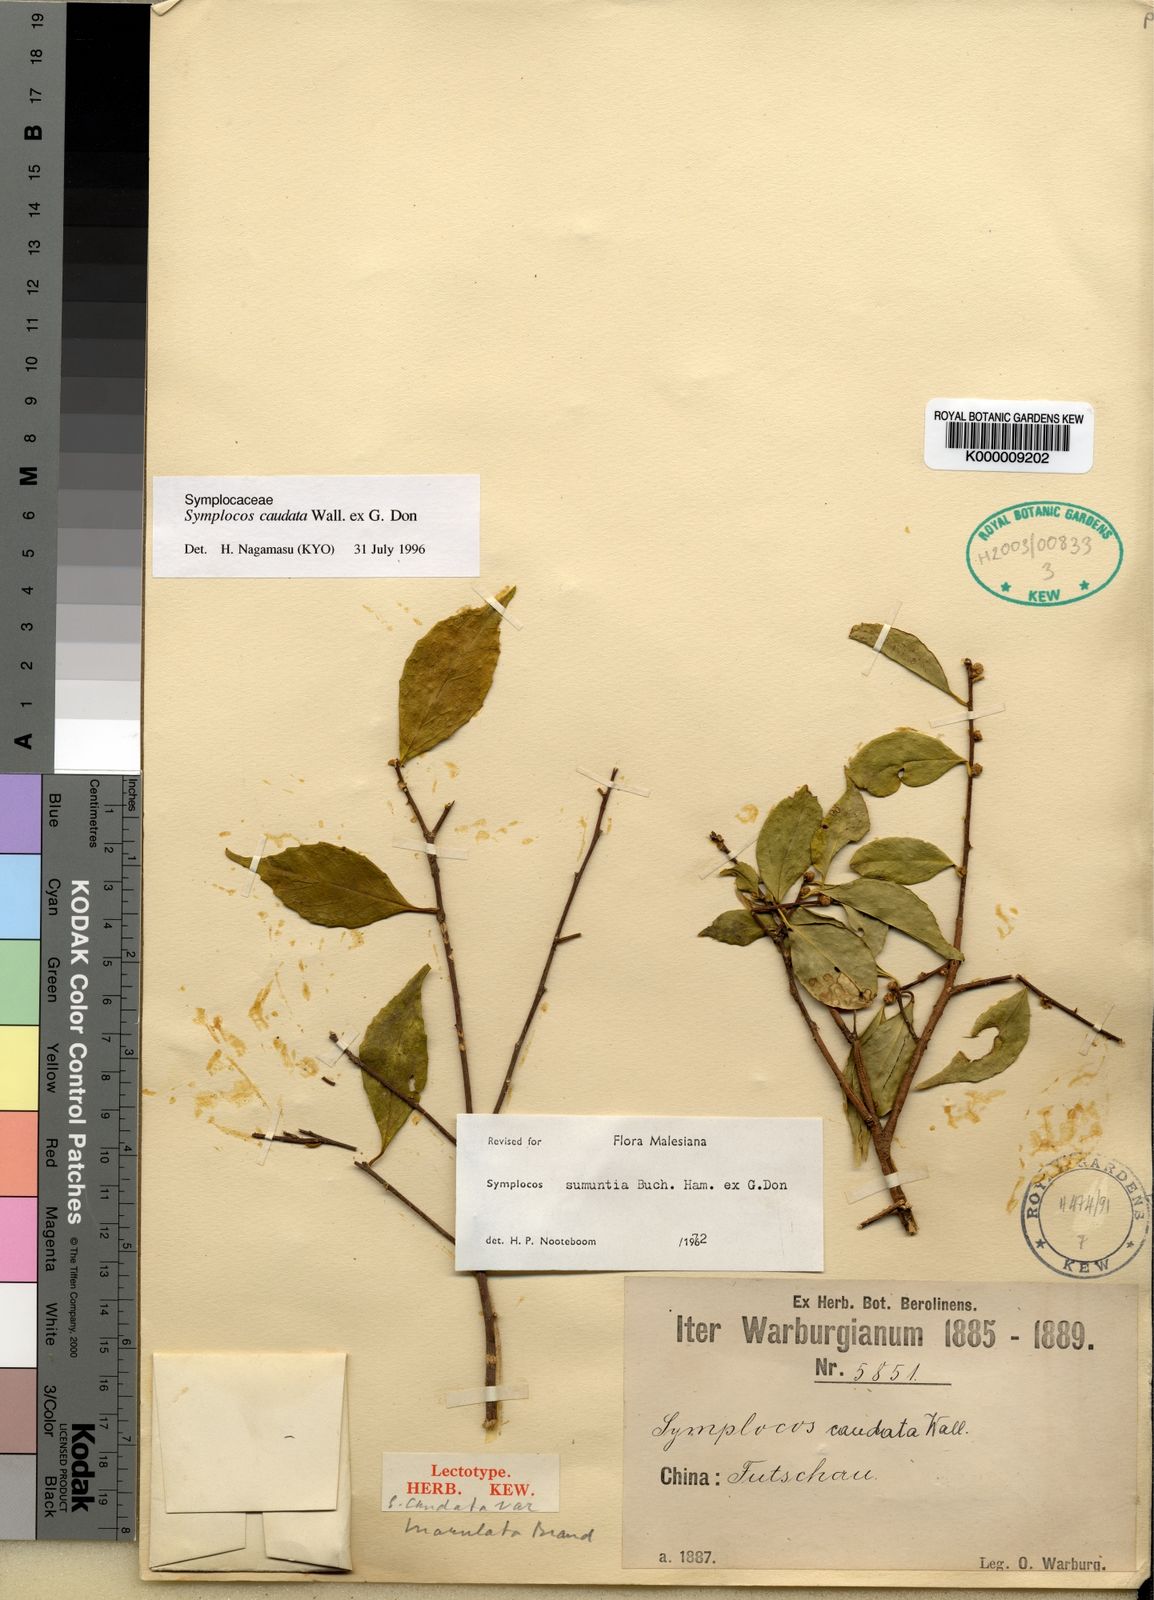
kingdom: Plantae
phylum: Tracheophyta
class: Magnoliopsida
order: Ericales
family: Symplocaceae
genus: Symplocos
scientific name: Symplocos sumuntia
